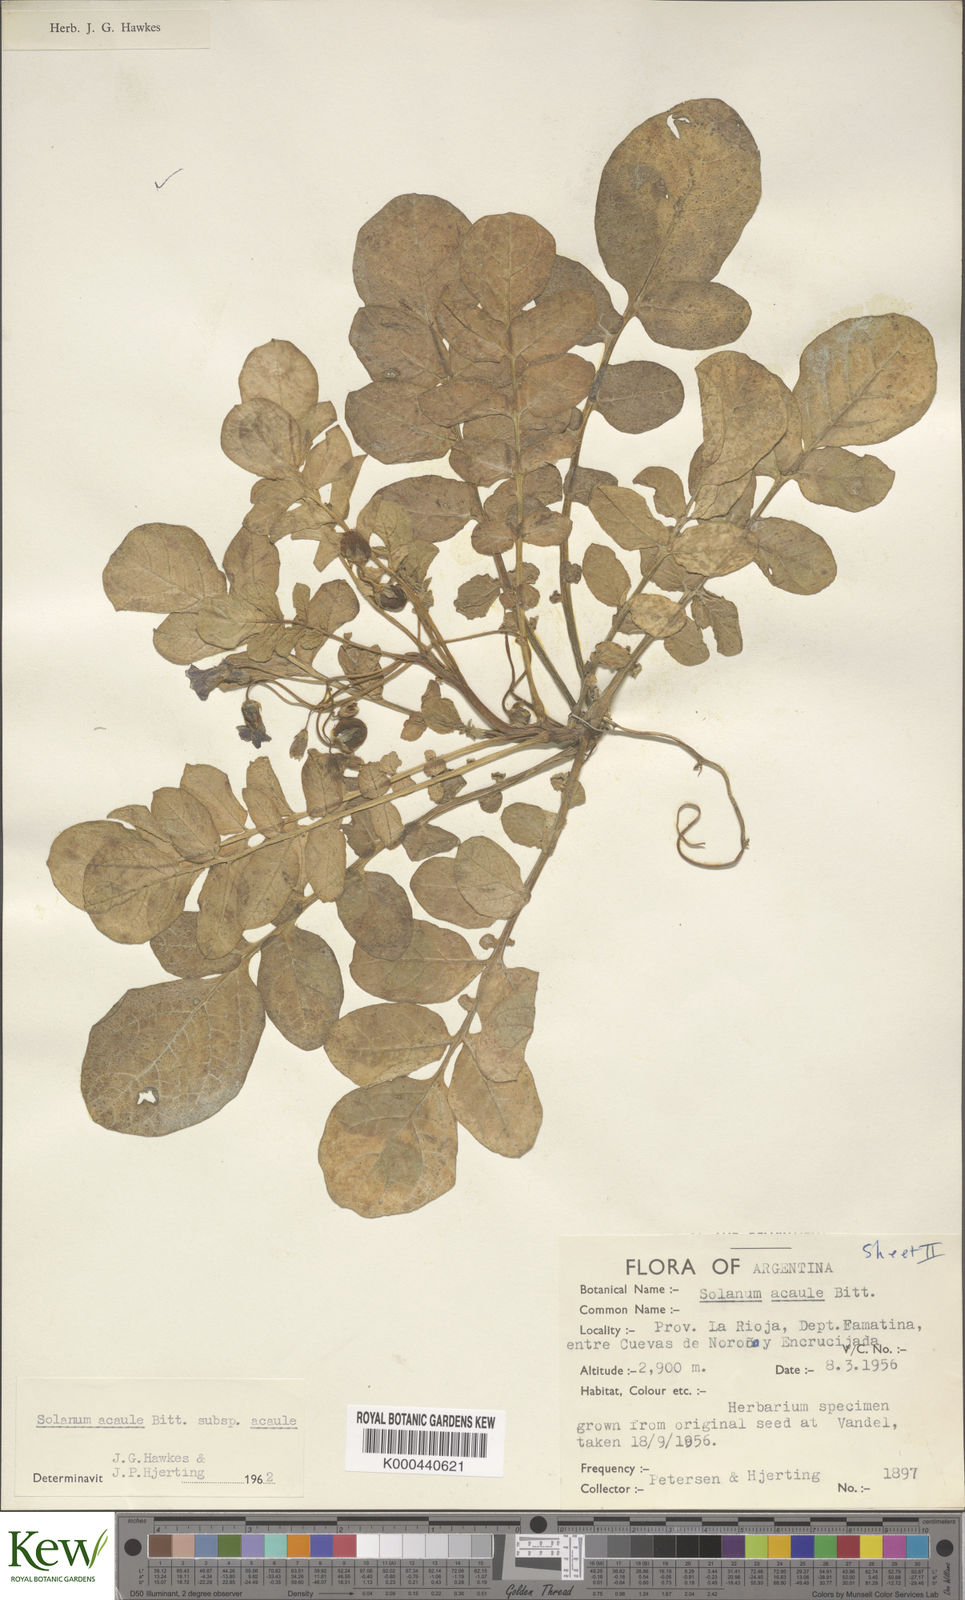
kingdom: Plantae
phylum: Tracheophyta
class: Magnoliopsida
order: Solanales
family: Solanaceae
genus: Solanum
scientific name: Solanum acaule
